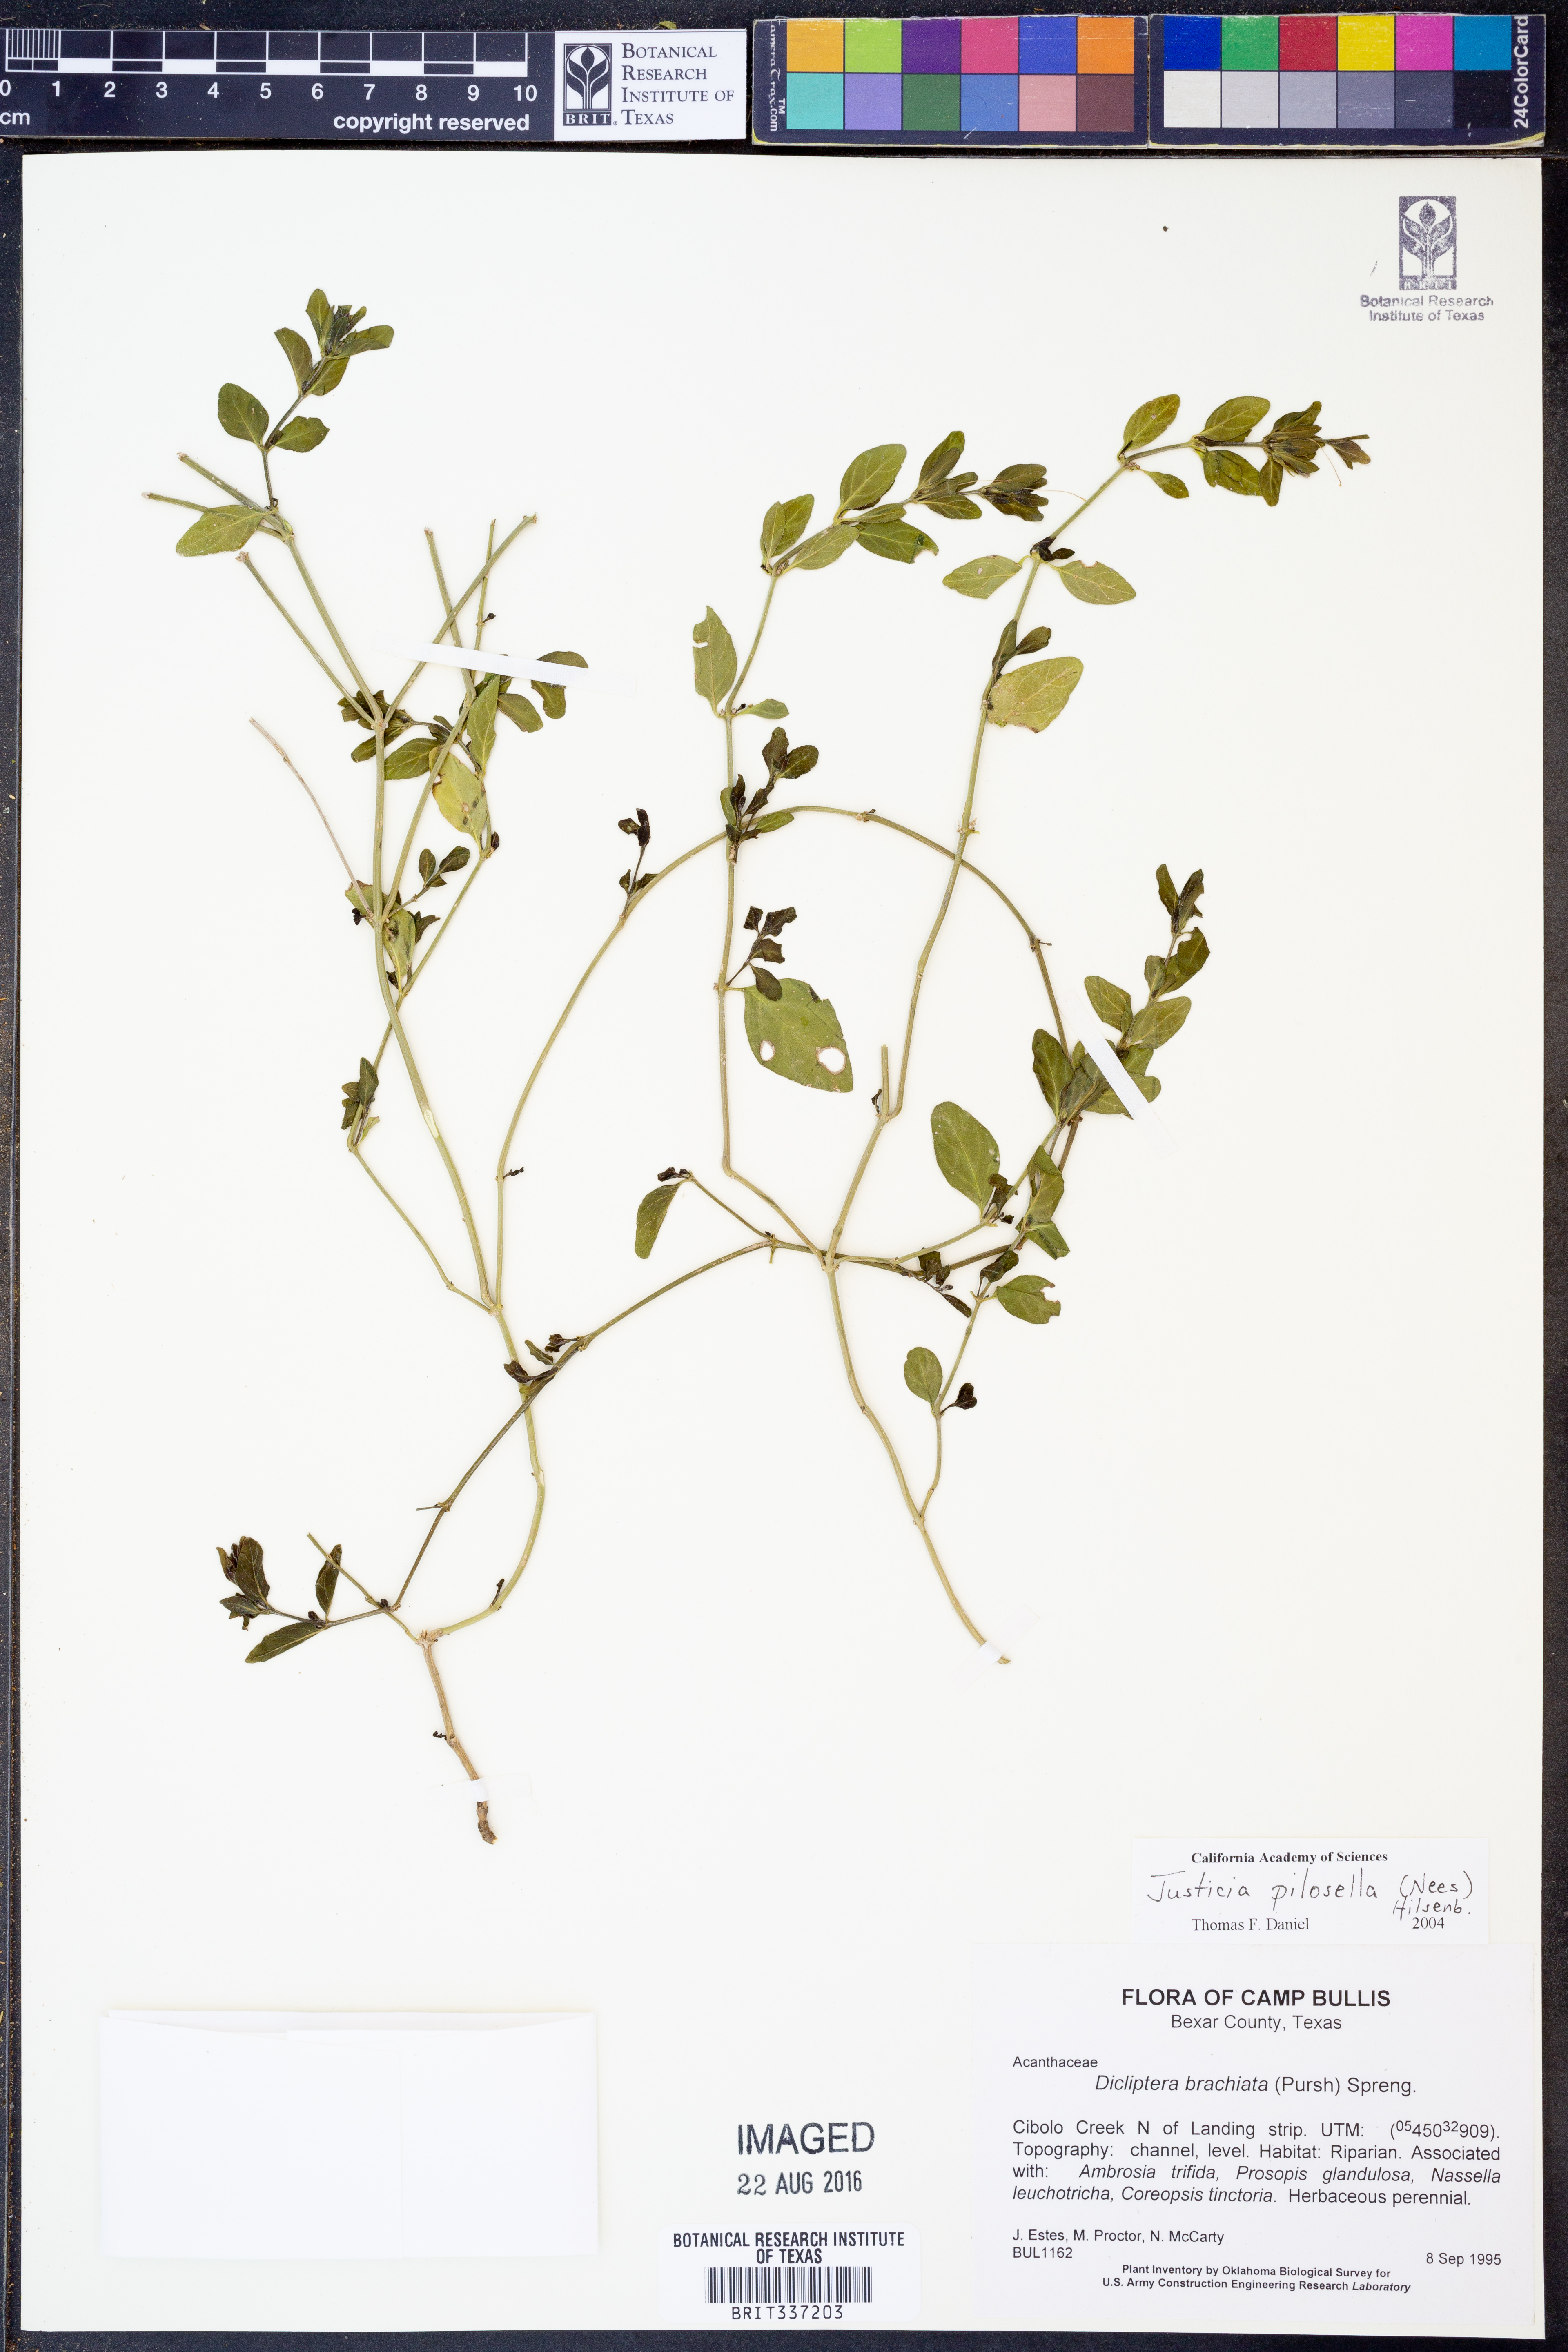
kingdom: Plantae
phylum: Tracheophyta
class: Magnoliopsida
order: Lamiales
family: Acanthaceae
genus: Justicia
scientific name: Justicia pilosella
